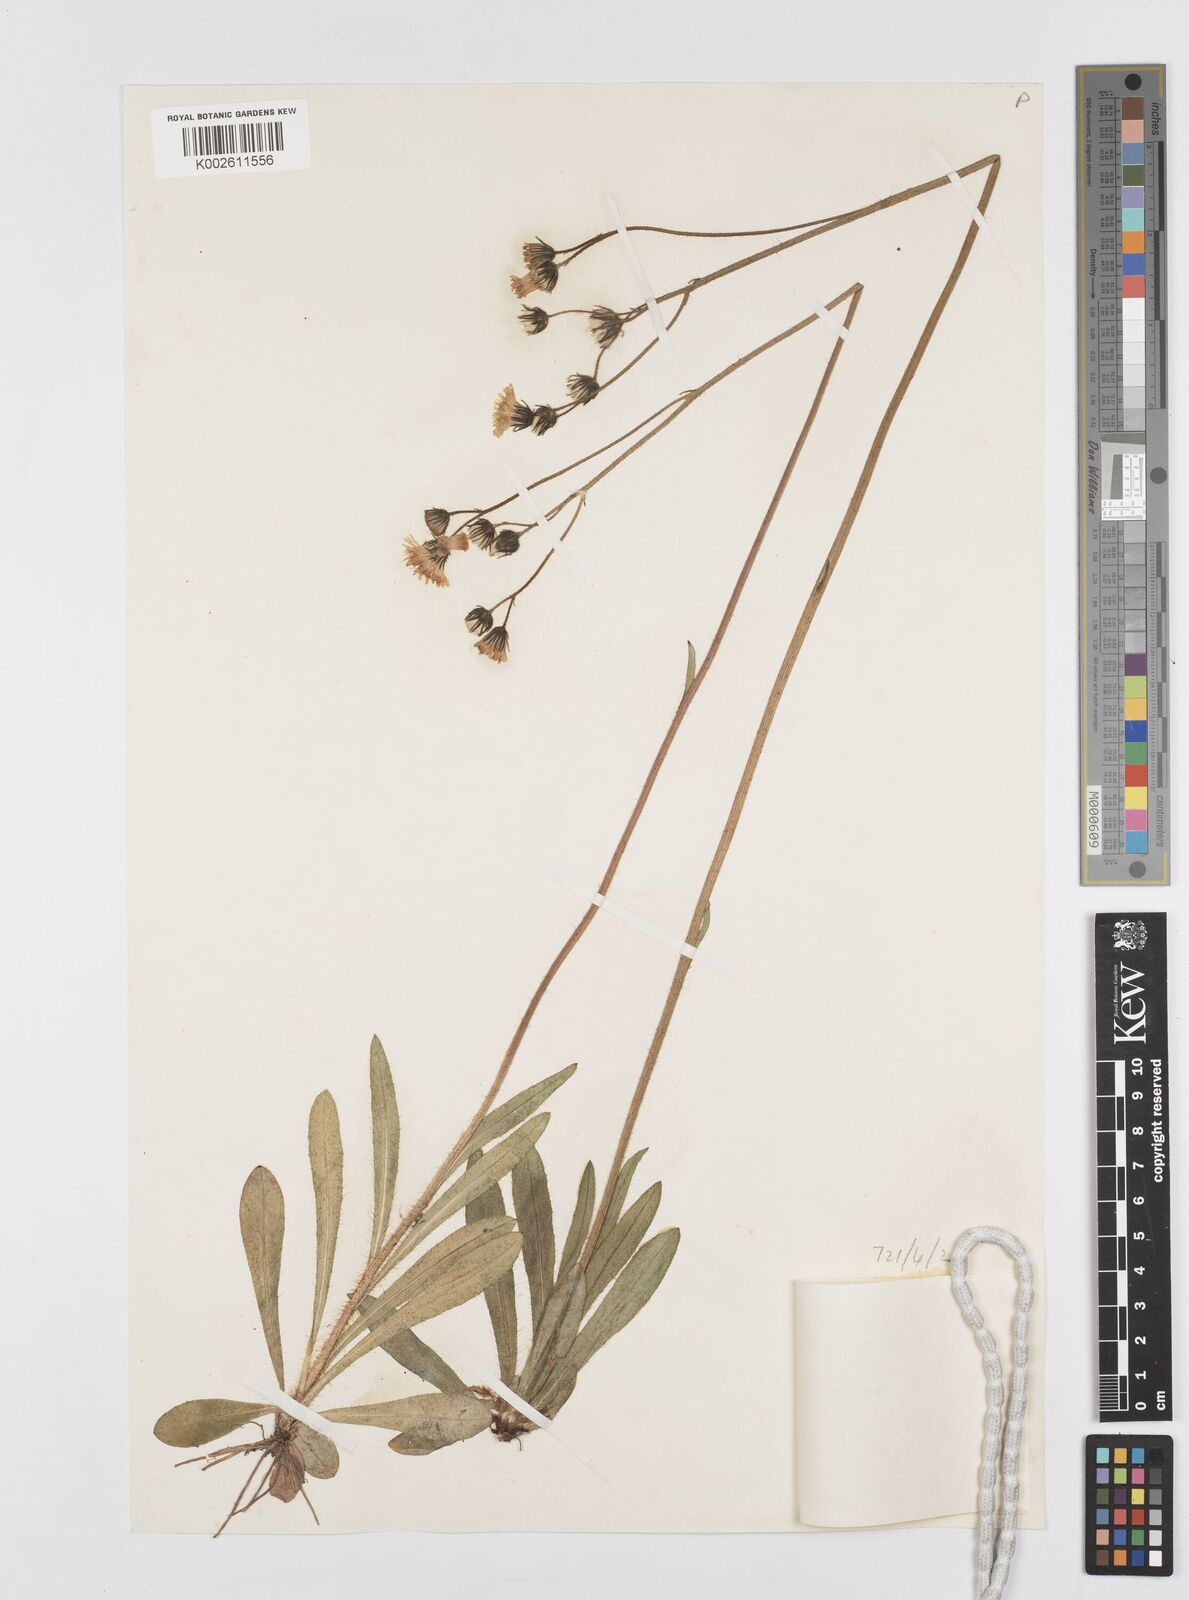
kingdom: Plantae
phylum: Tracheophyta
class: Magnoliopsida
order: Asterales
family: Asteraceae
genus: Pilosella
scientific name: Pilosella erythrochrista
